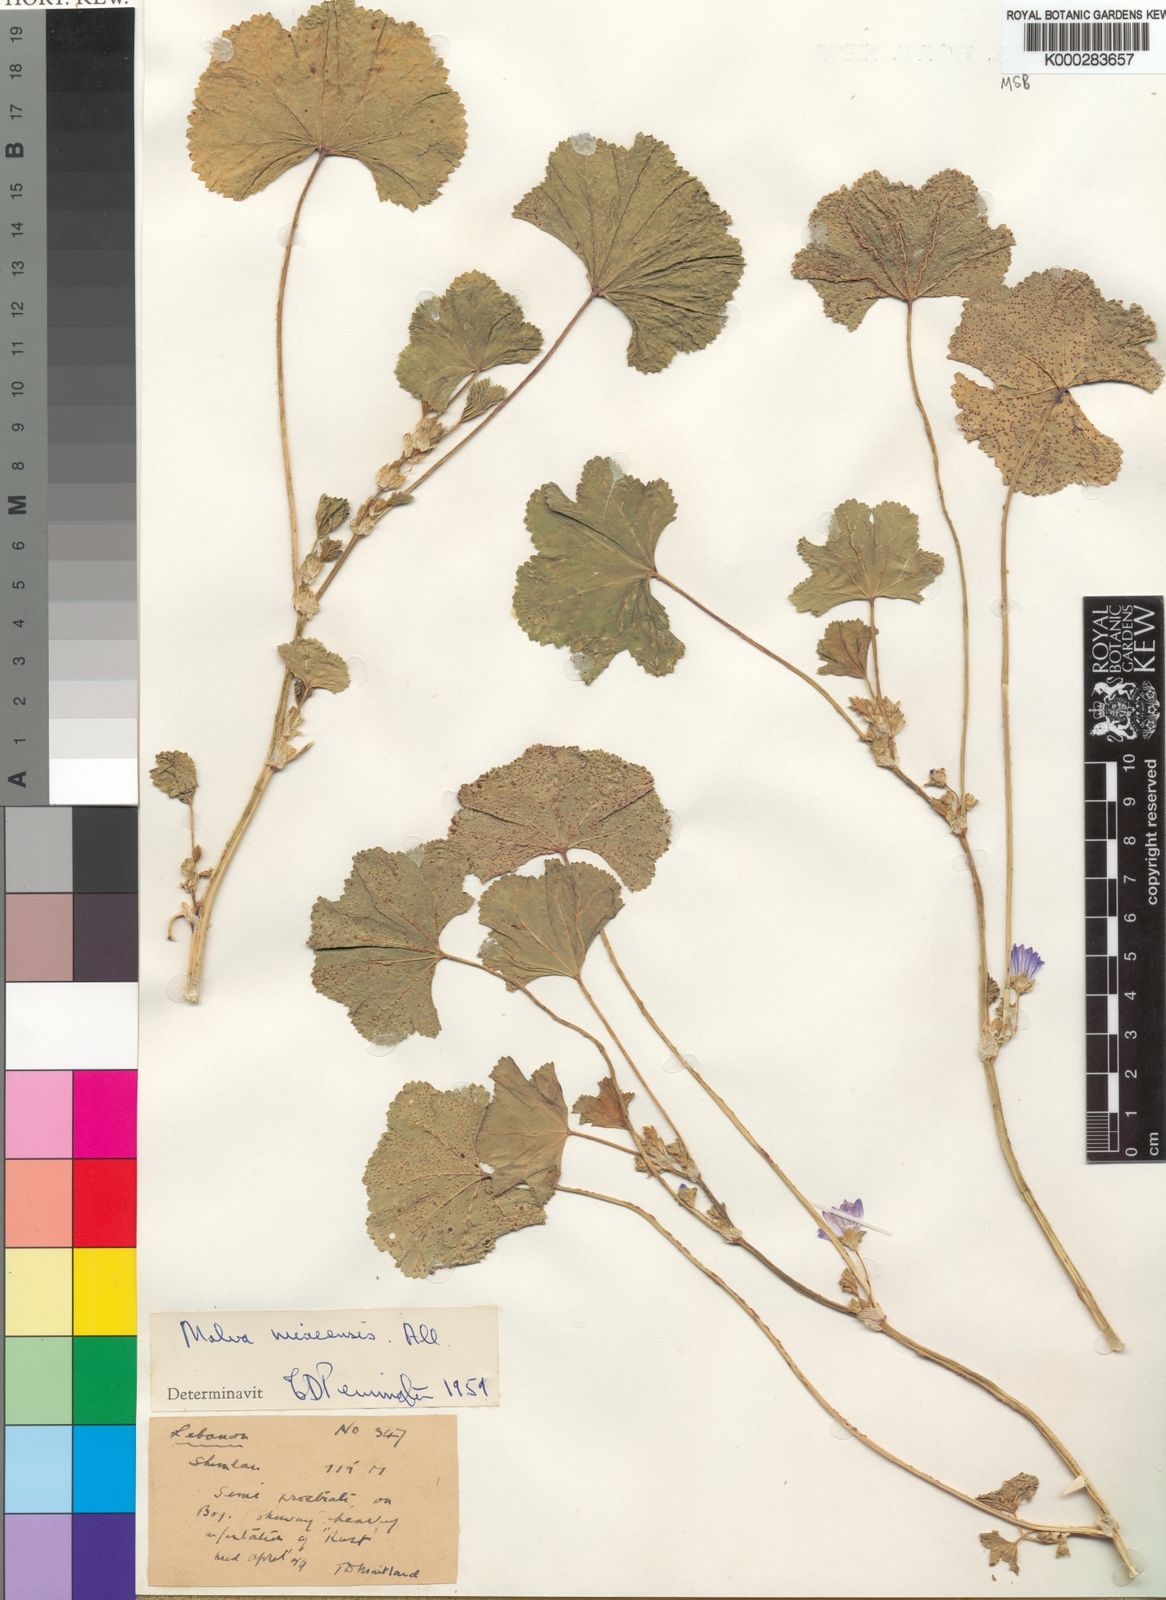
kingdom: Plantae
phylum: Tracheophyta
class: Magnoliopsida
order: Malvales
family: Malvaceae
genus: Malva
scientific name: Malva nicaeensis
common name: French mallow
